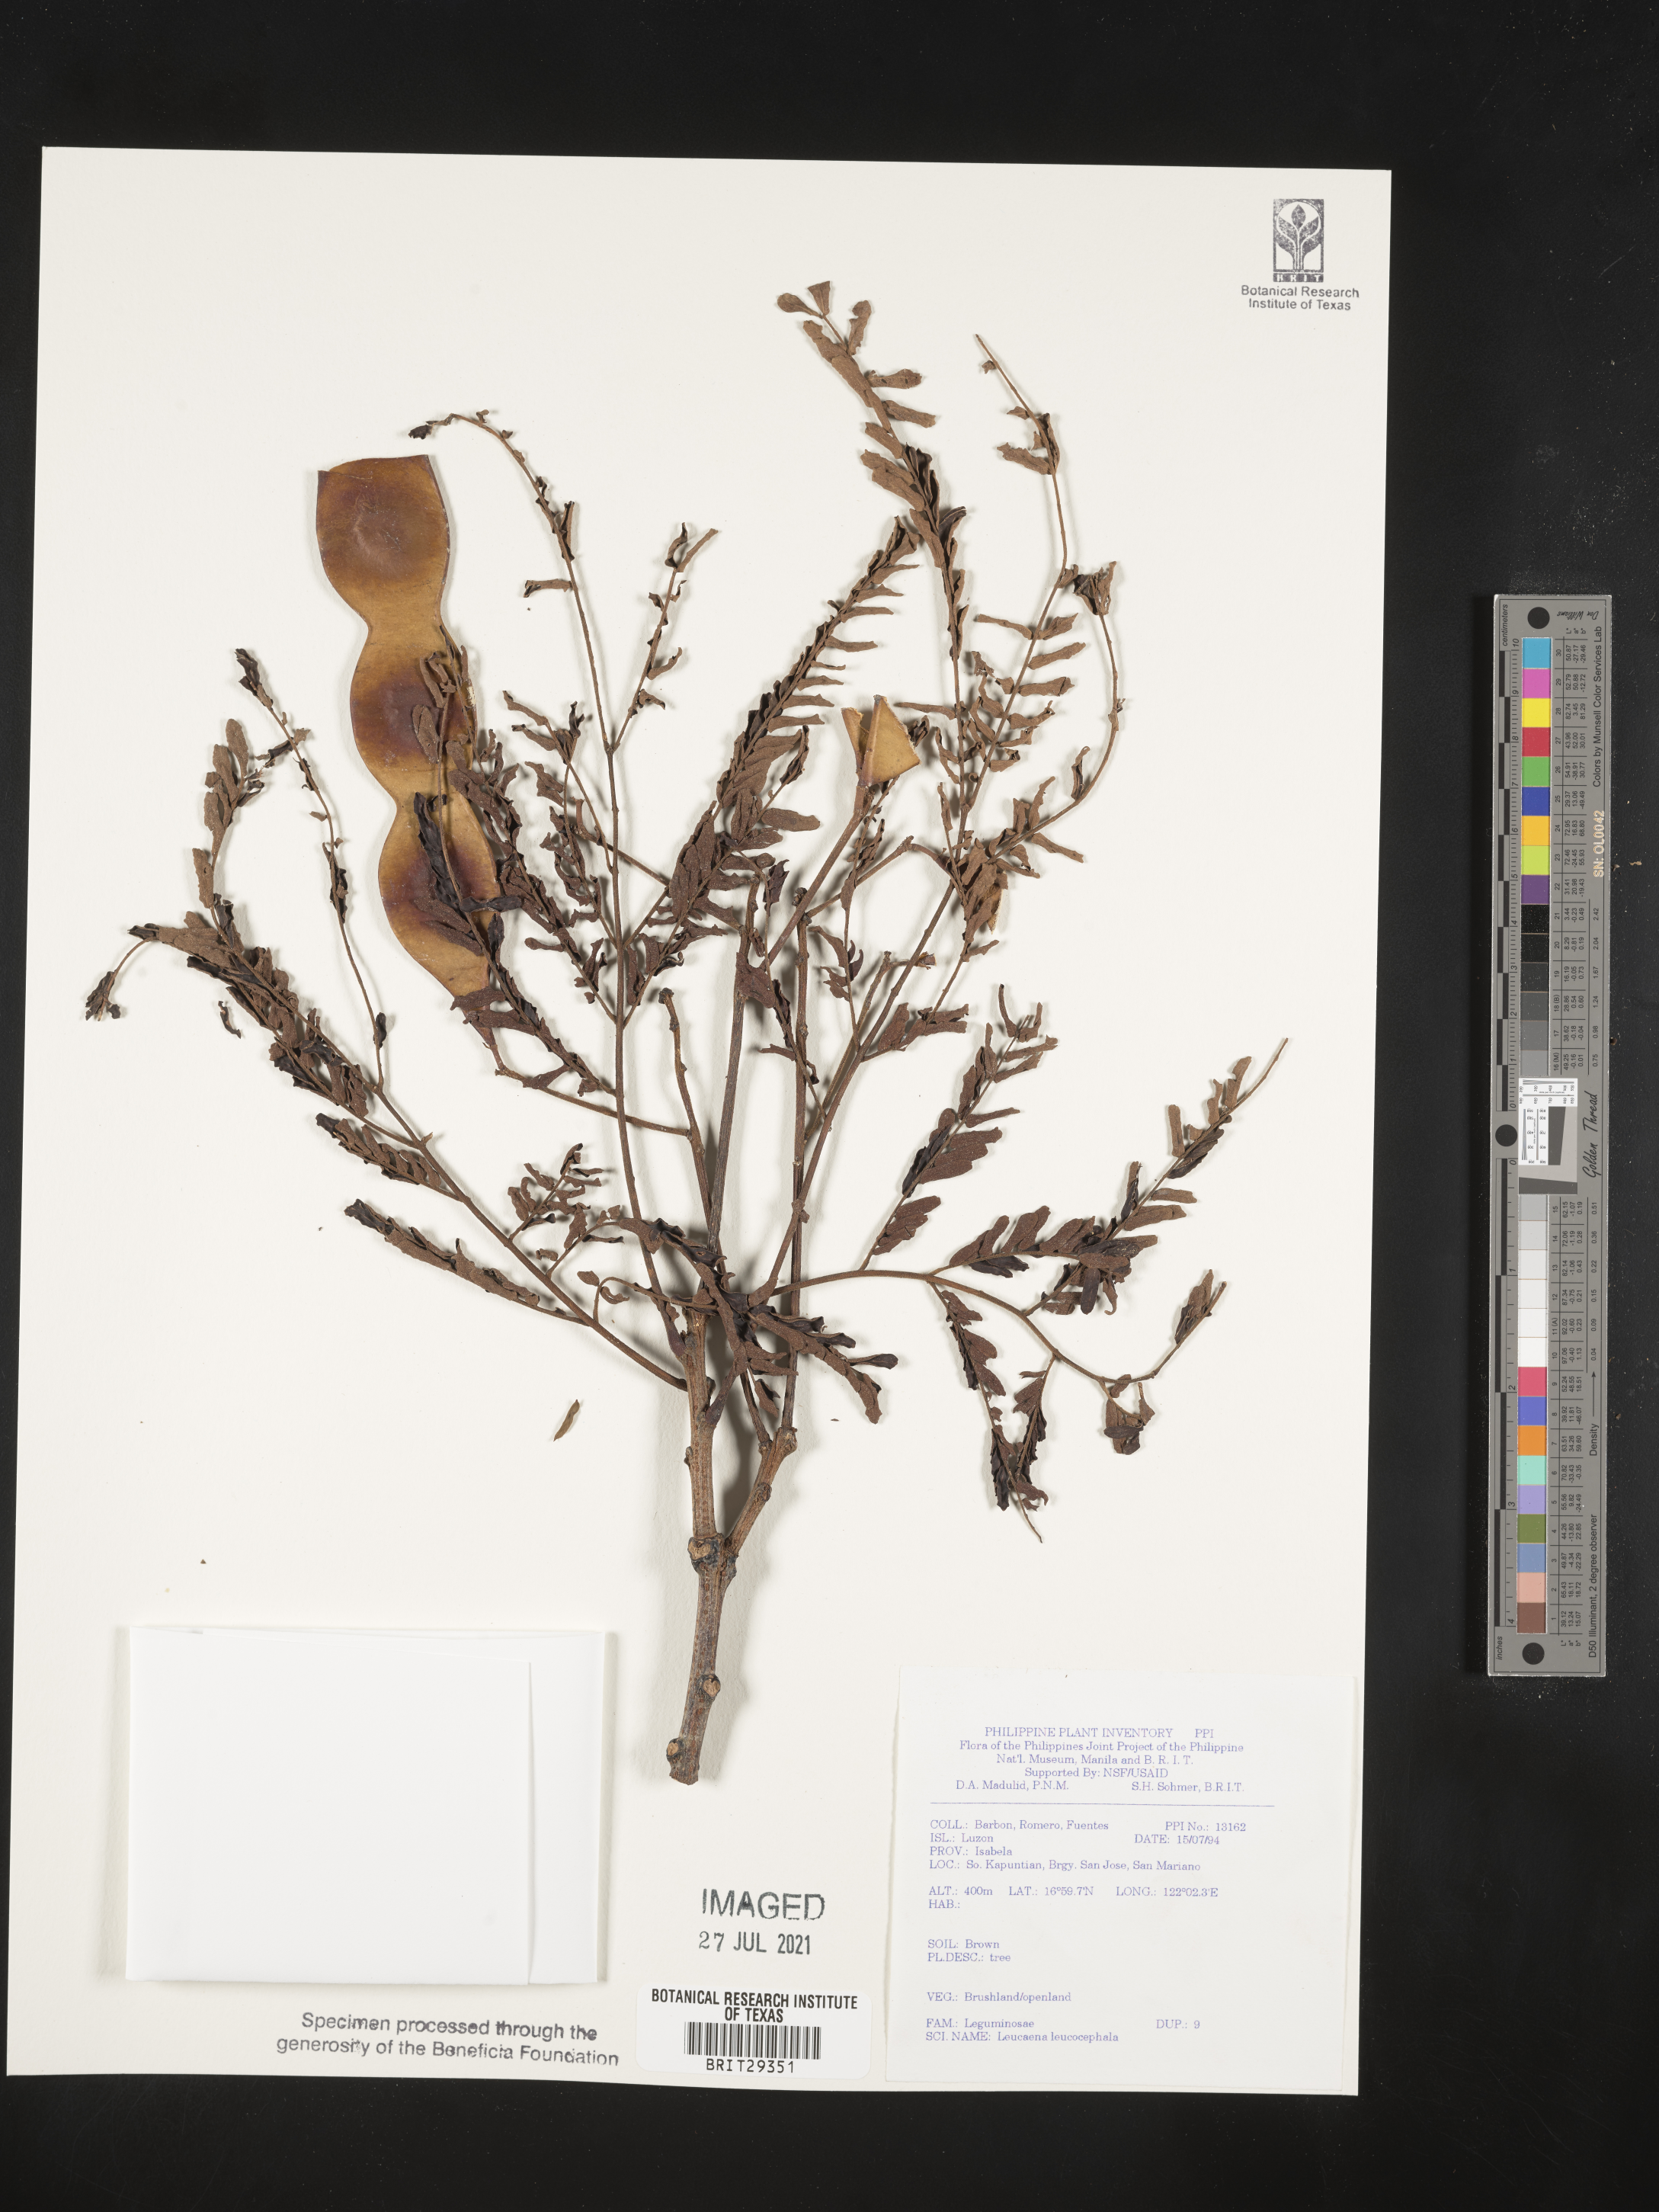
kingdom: Plantae
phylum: Tracheophyta
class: Magnoliopsida
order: Fabales
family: Fabaceae
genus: Leucaena
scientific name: Leucaena leucocephala
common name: White leadtree
